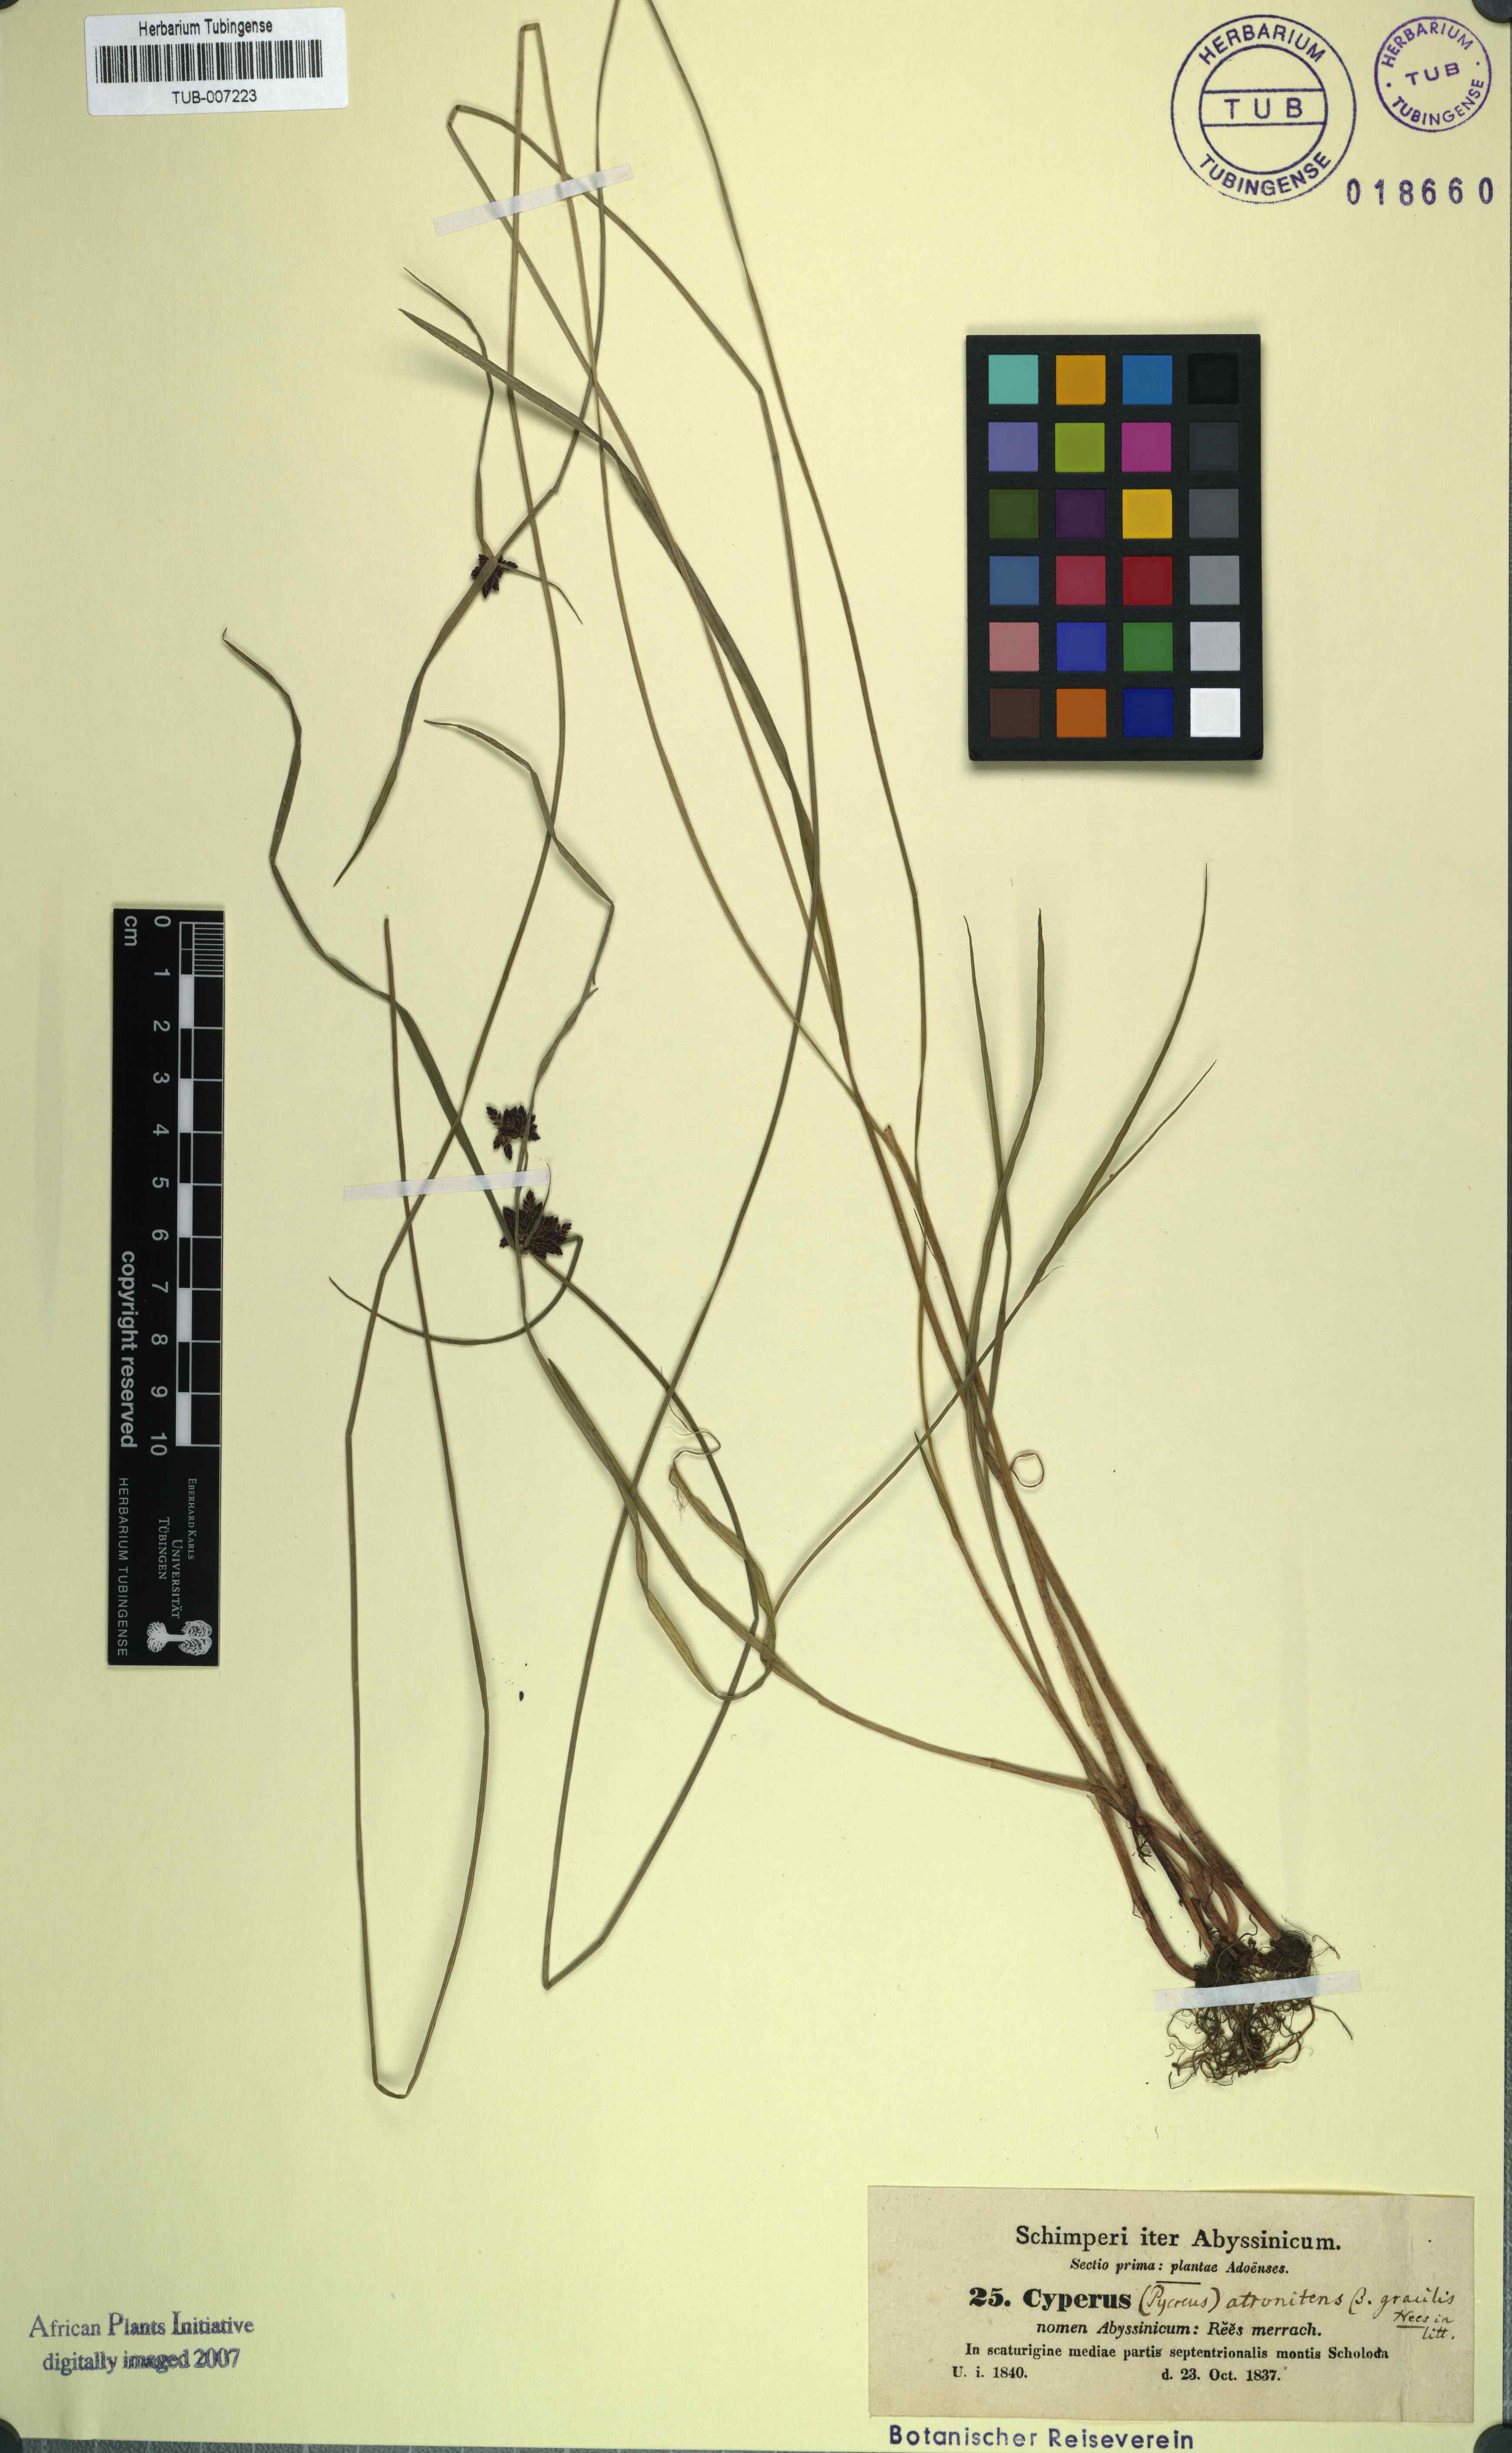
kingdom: Plantae
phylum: Tracheophyta
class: Liliopsida
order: Poales
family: Cyperaceae
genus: Cyperus
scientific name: Cyperus elegantulus
